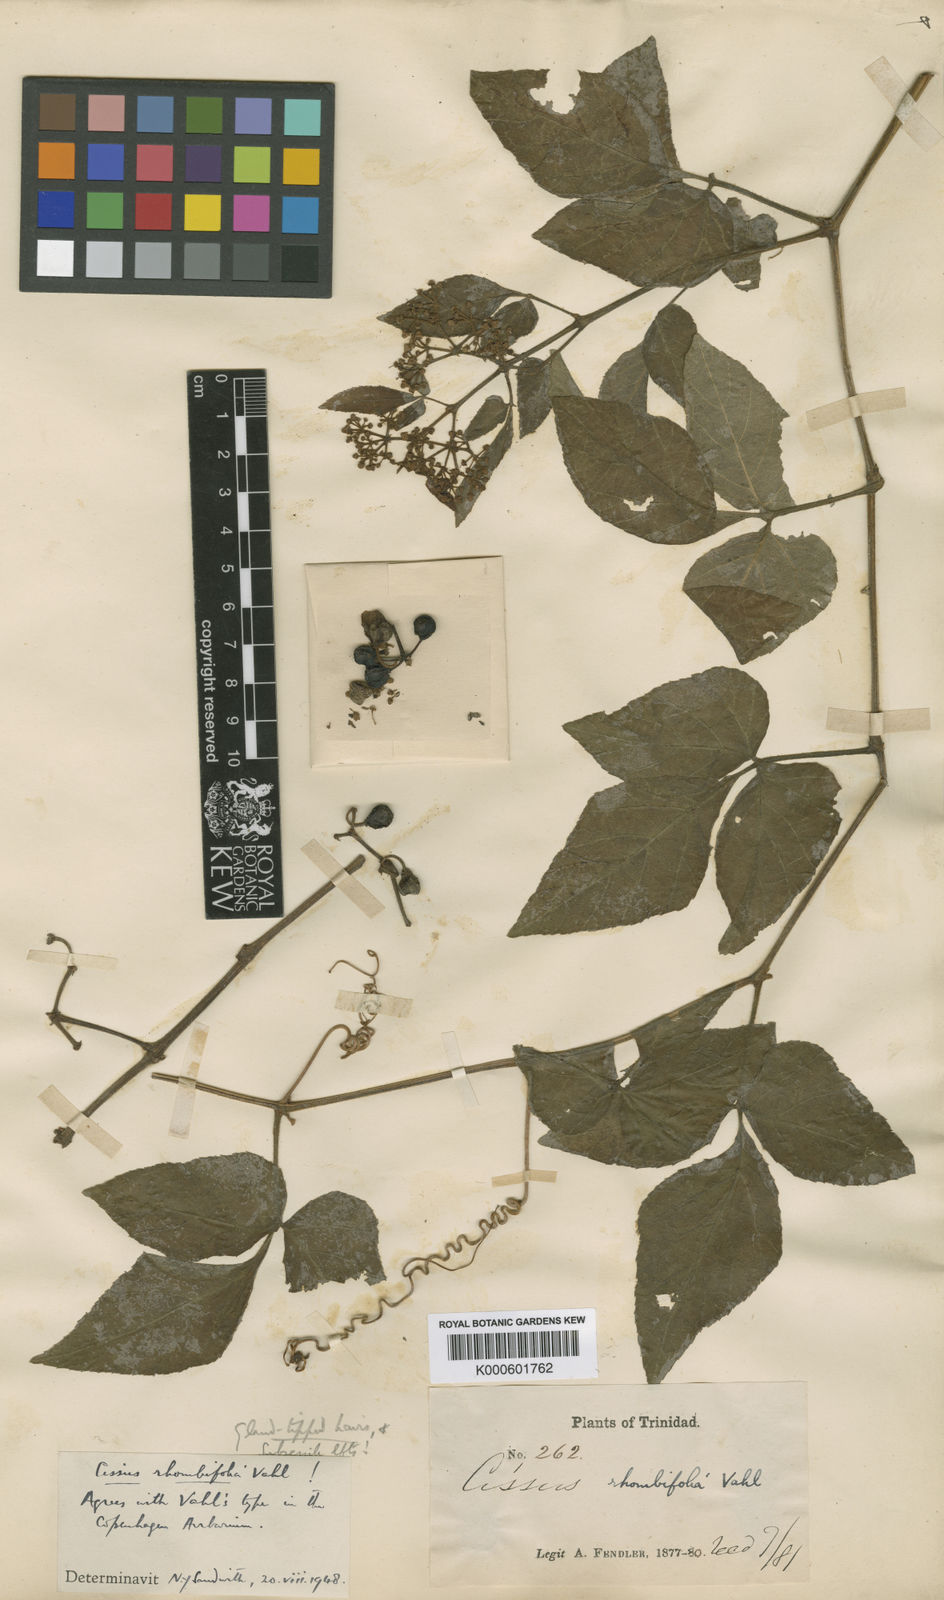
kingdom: Plantae
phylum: Tracheophyta
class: Magnoliopsida
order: Vitales
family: Vitaceae
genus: Cissus
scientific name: Cissus alata
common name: Venezuela treebind
